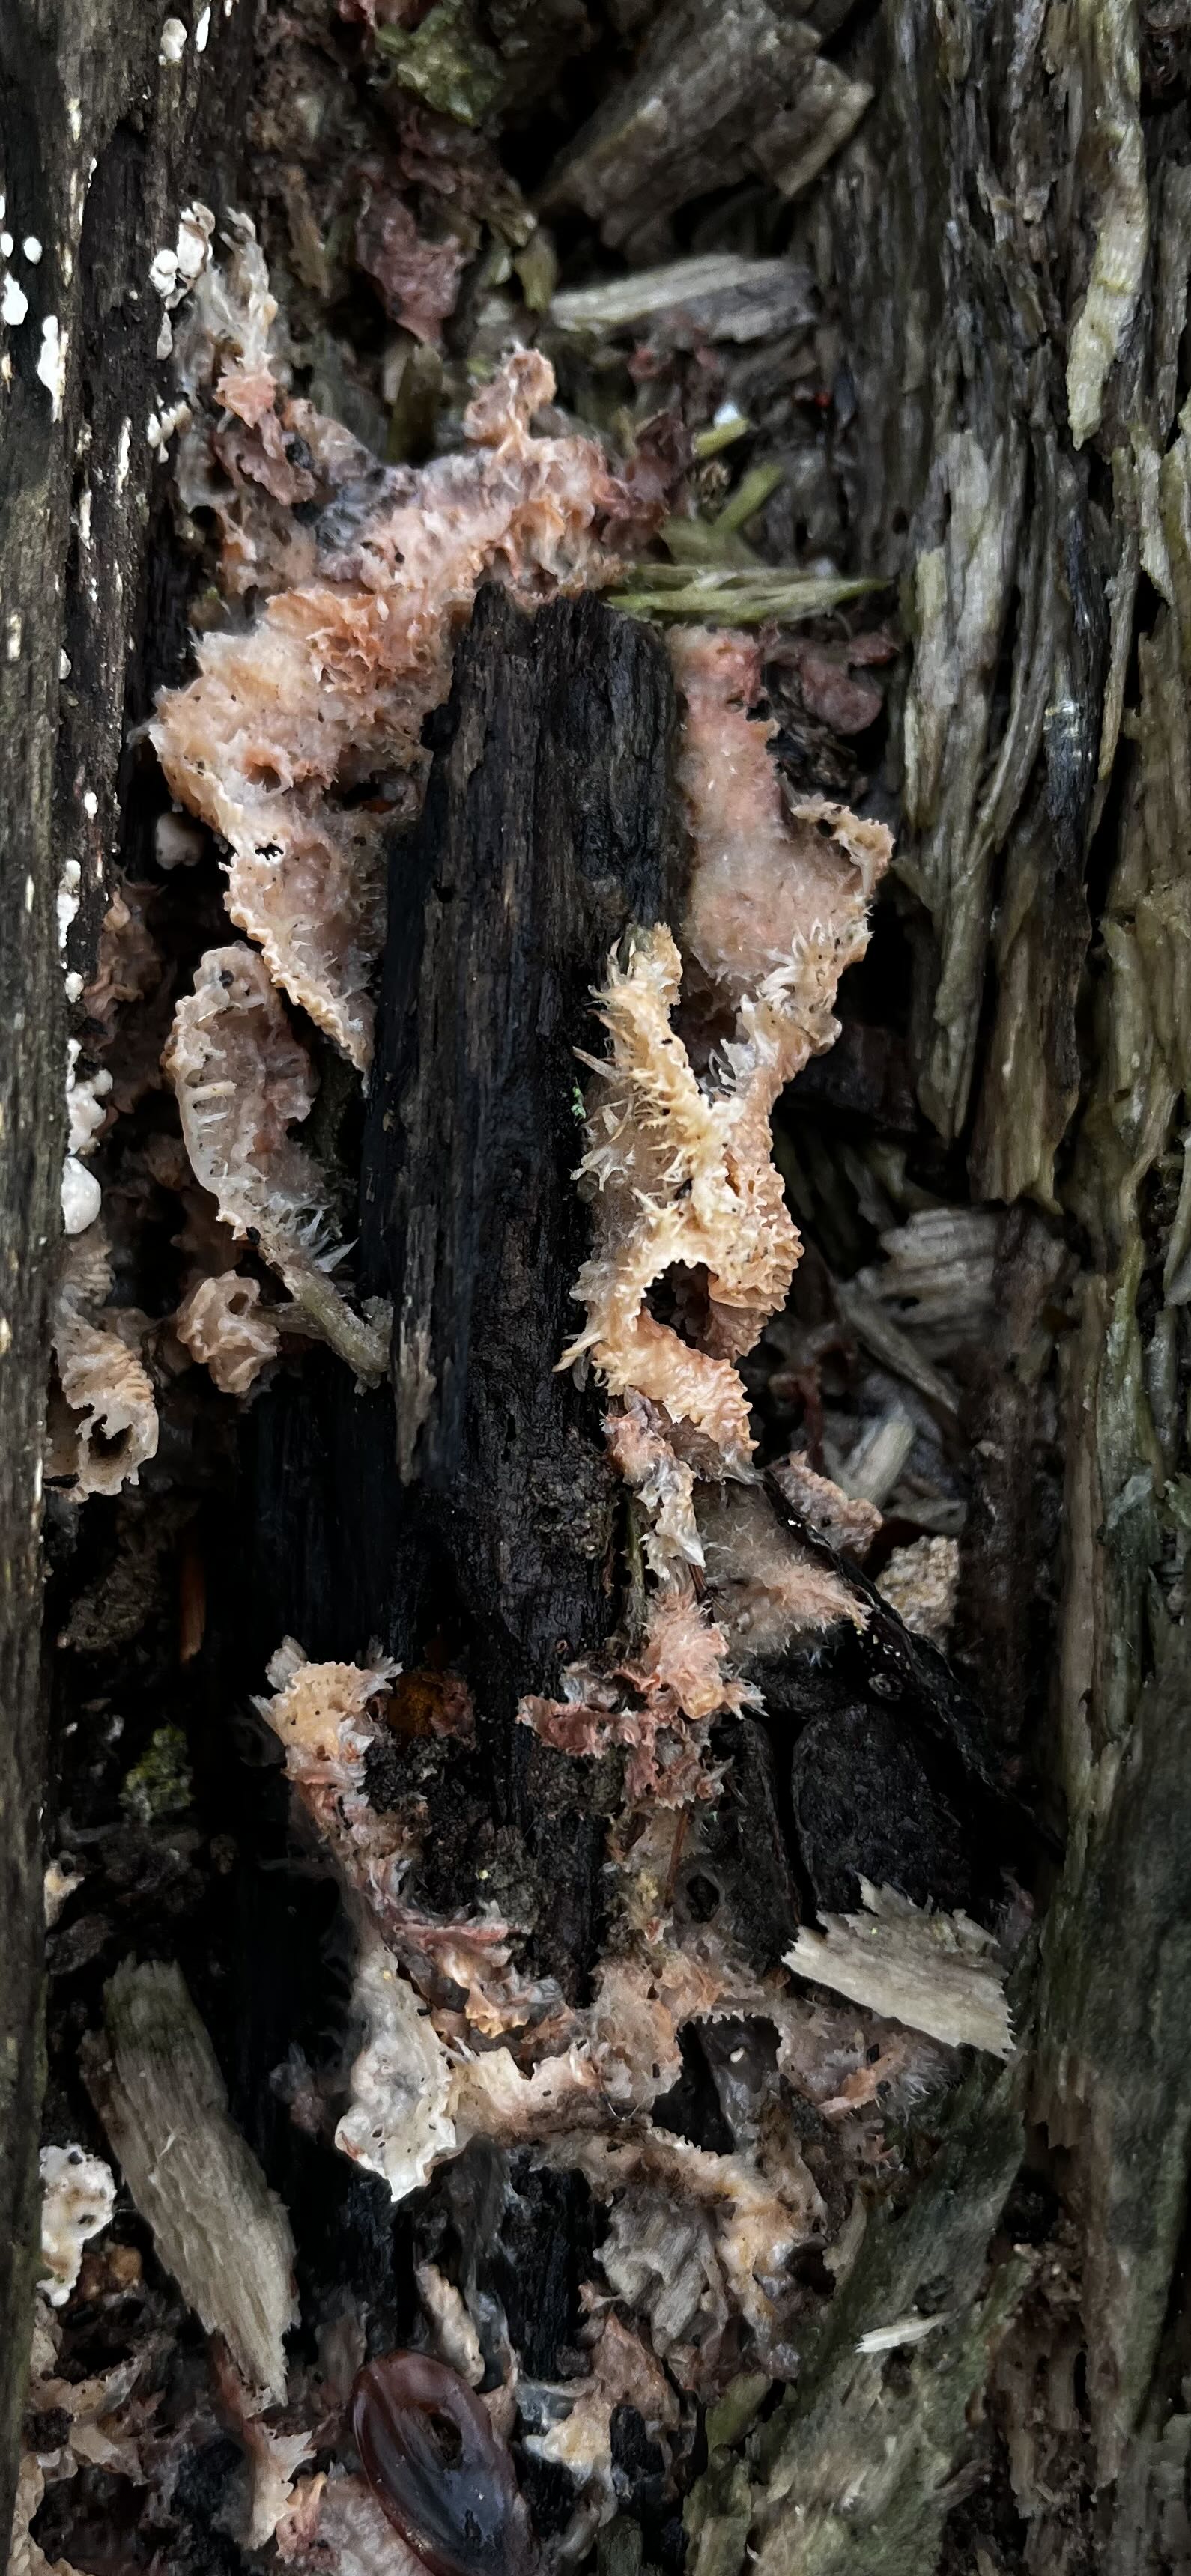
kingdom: Fungi
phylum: Basidiomycota
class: Agaricomycetes
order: Polyporales
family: Meruliaceae
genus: Phlebia
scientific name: Phlebia tremellosa
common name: bævrende åresvamp
